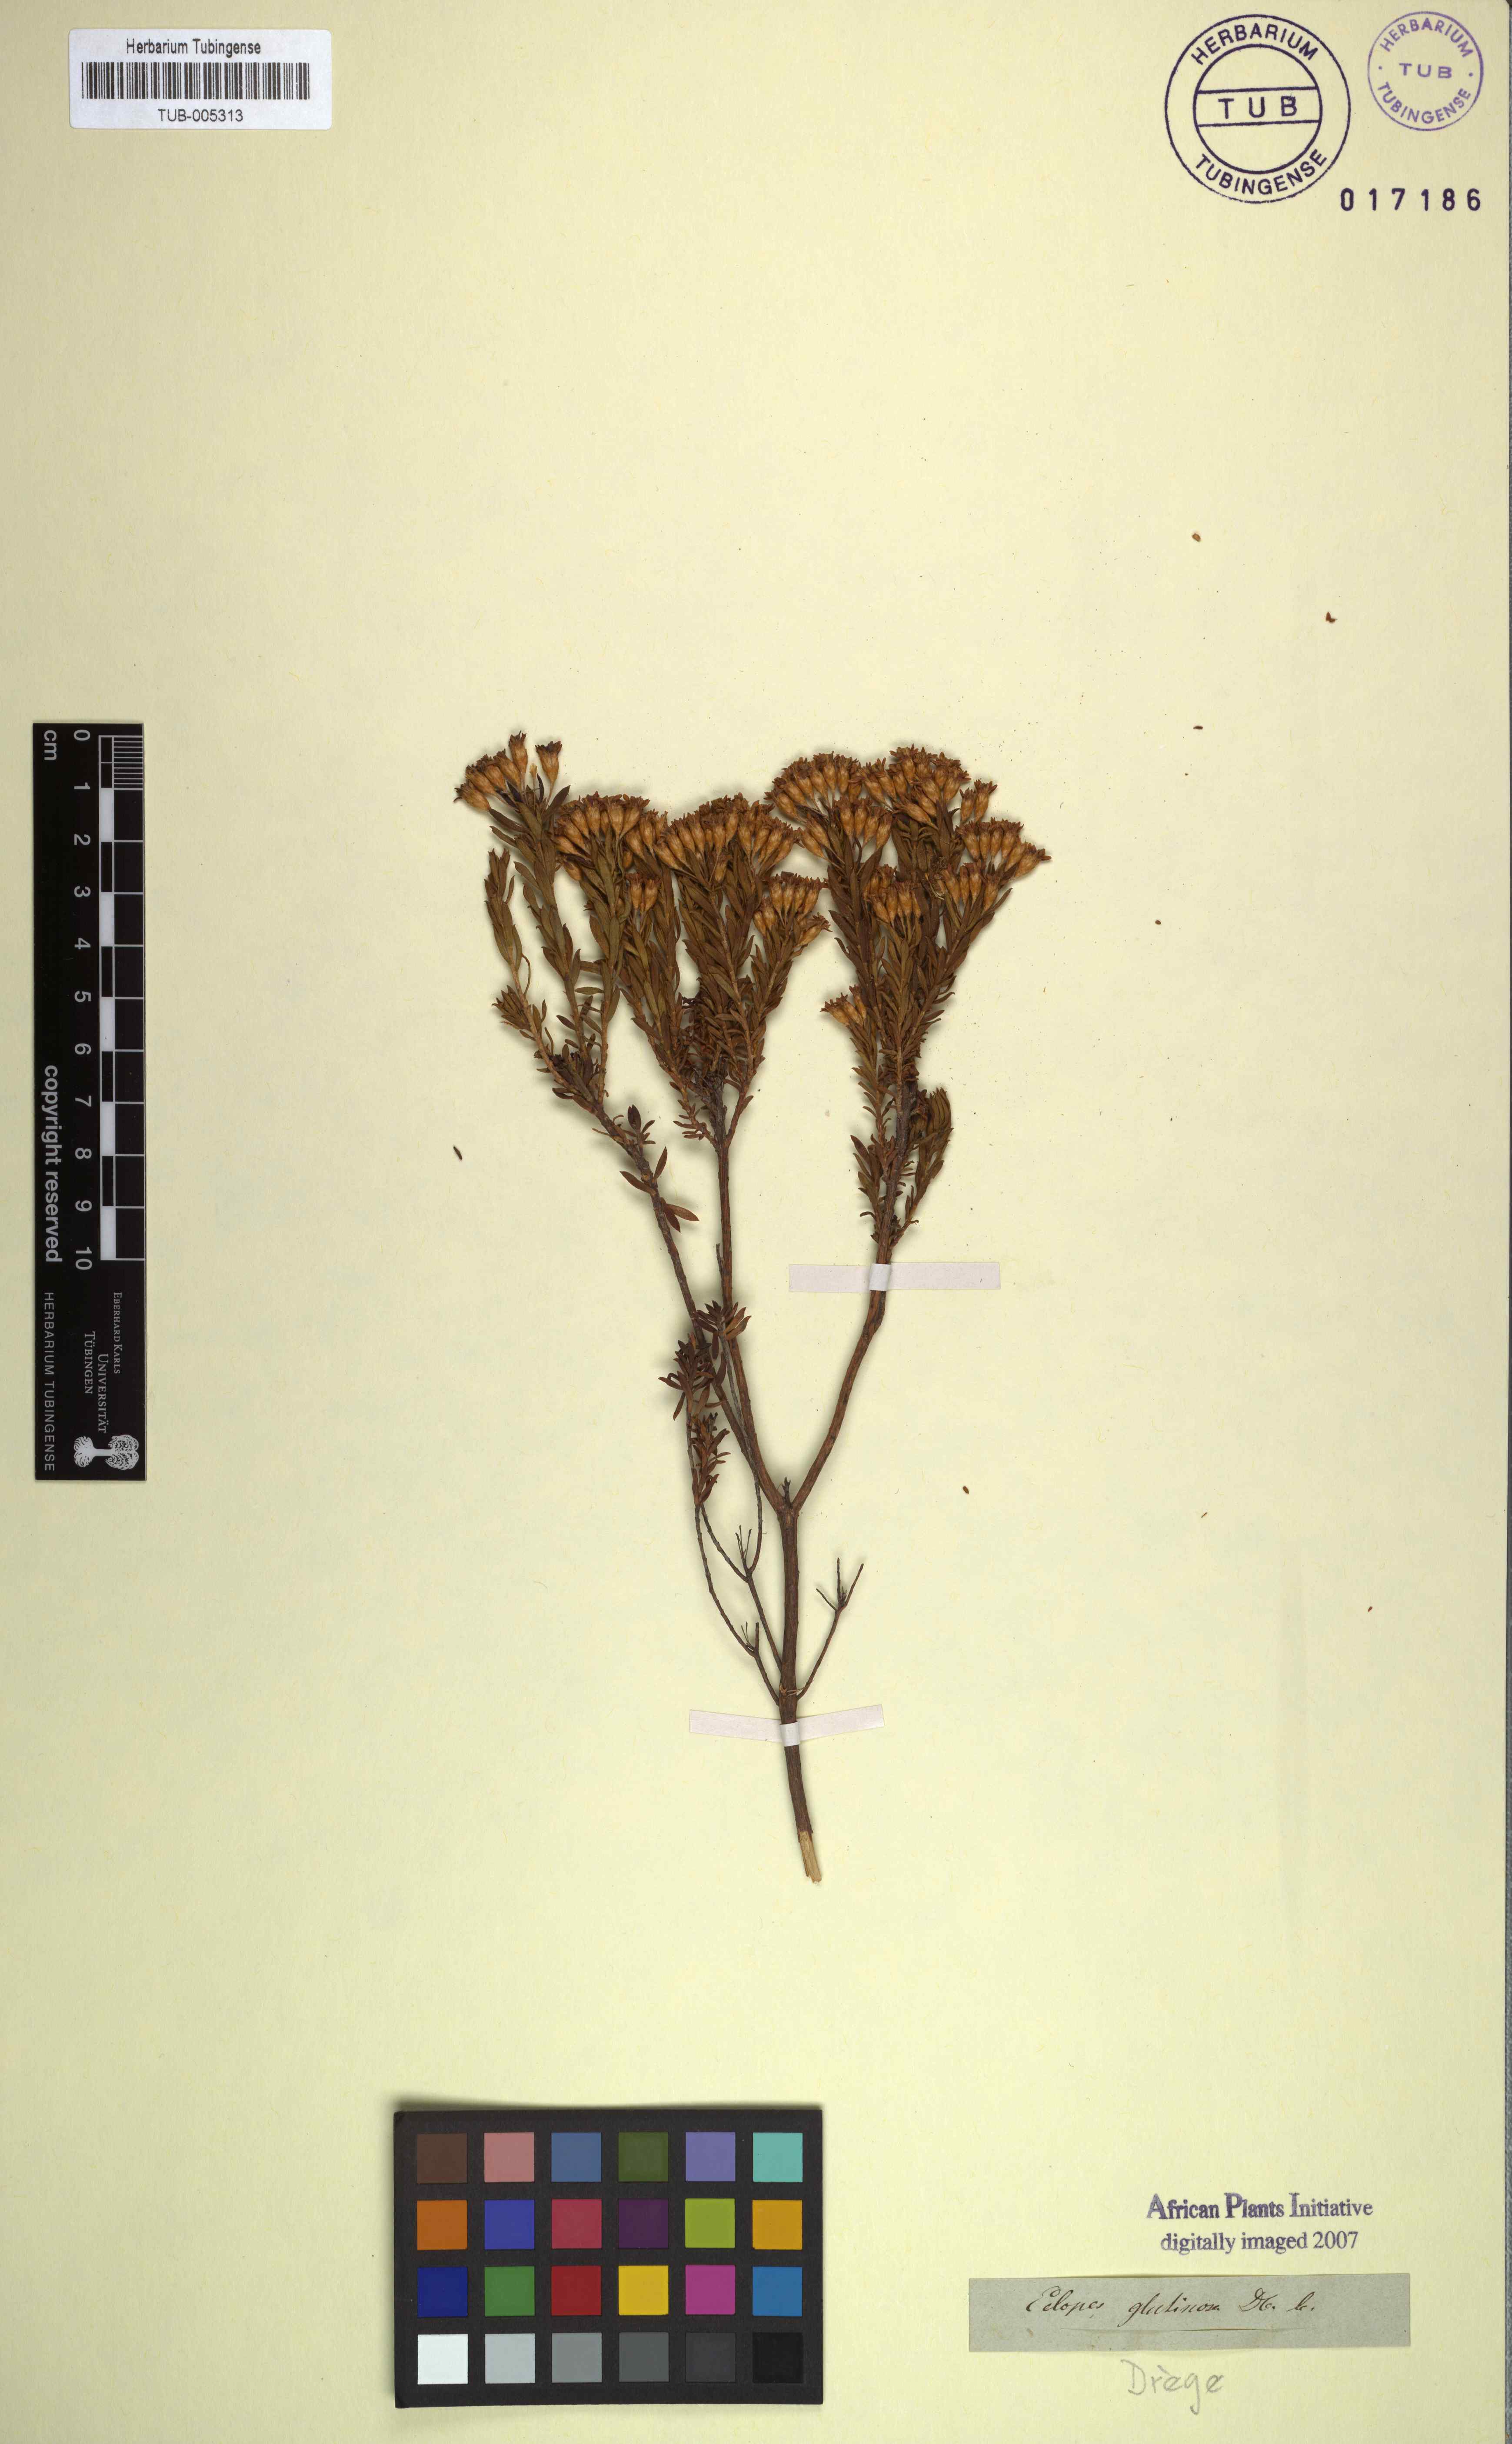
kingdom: Plantae
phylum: Tracheophyta
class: Magnoliopsida
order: Asterales
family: Asteraceae
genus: Oedera
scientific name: Oedera viscosa
